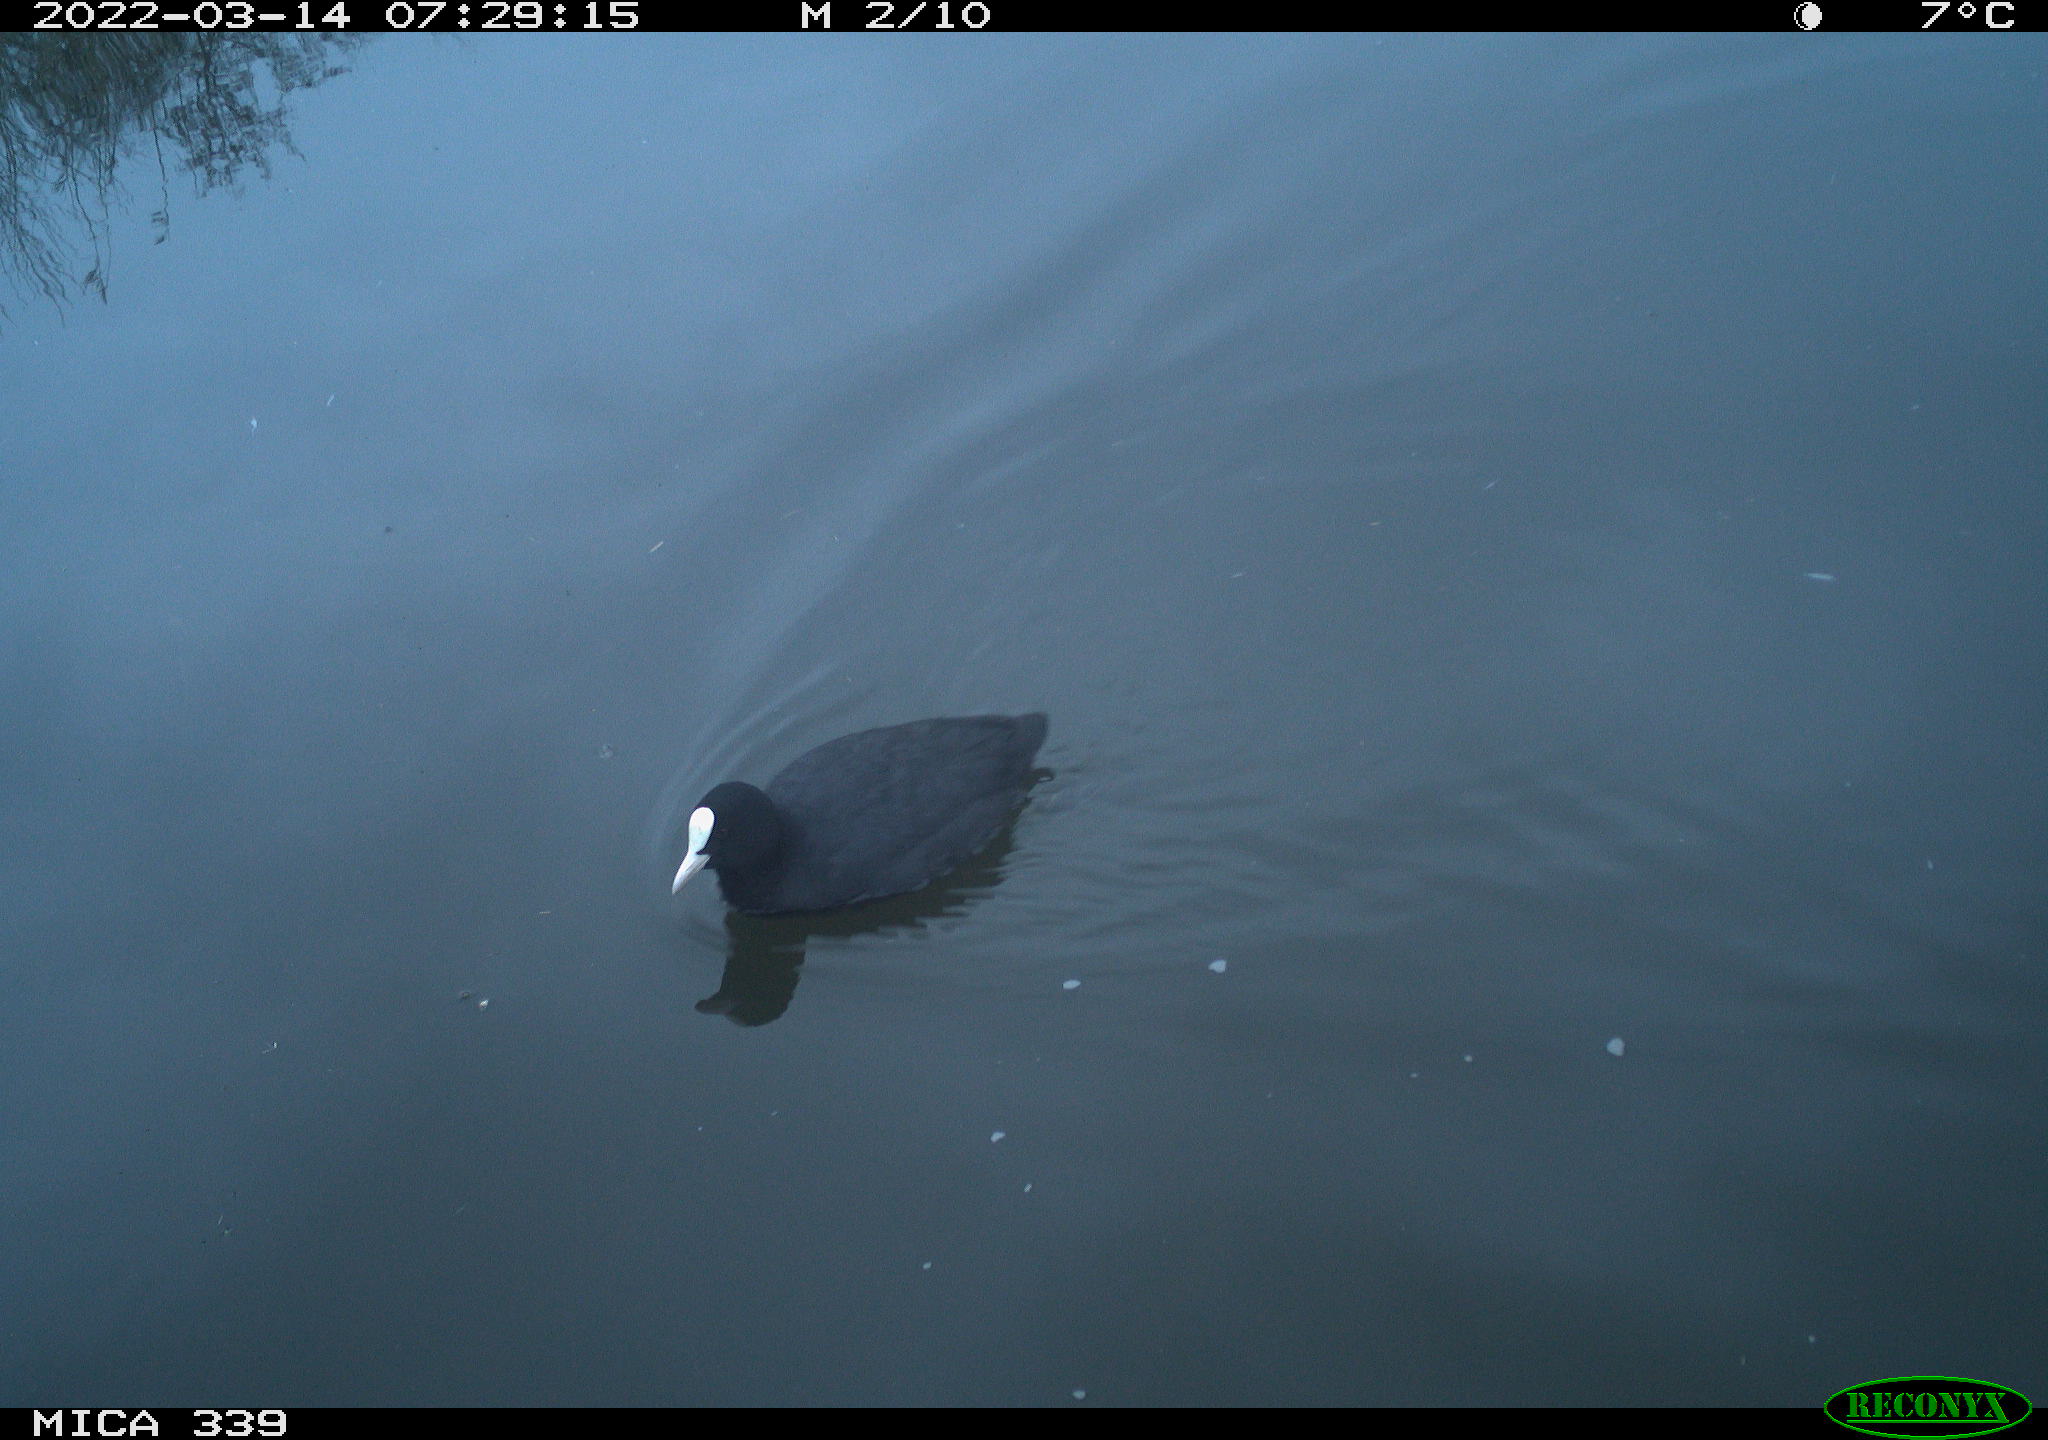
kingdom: Animalia
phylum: Chordata
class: Aves
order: Gruiformes
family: Rallidae
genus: Fulica
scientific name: Fulica atra
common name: Eurasian coot
